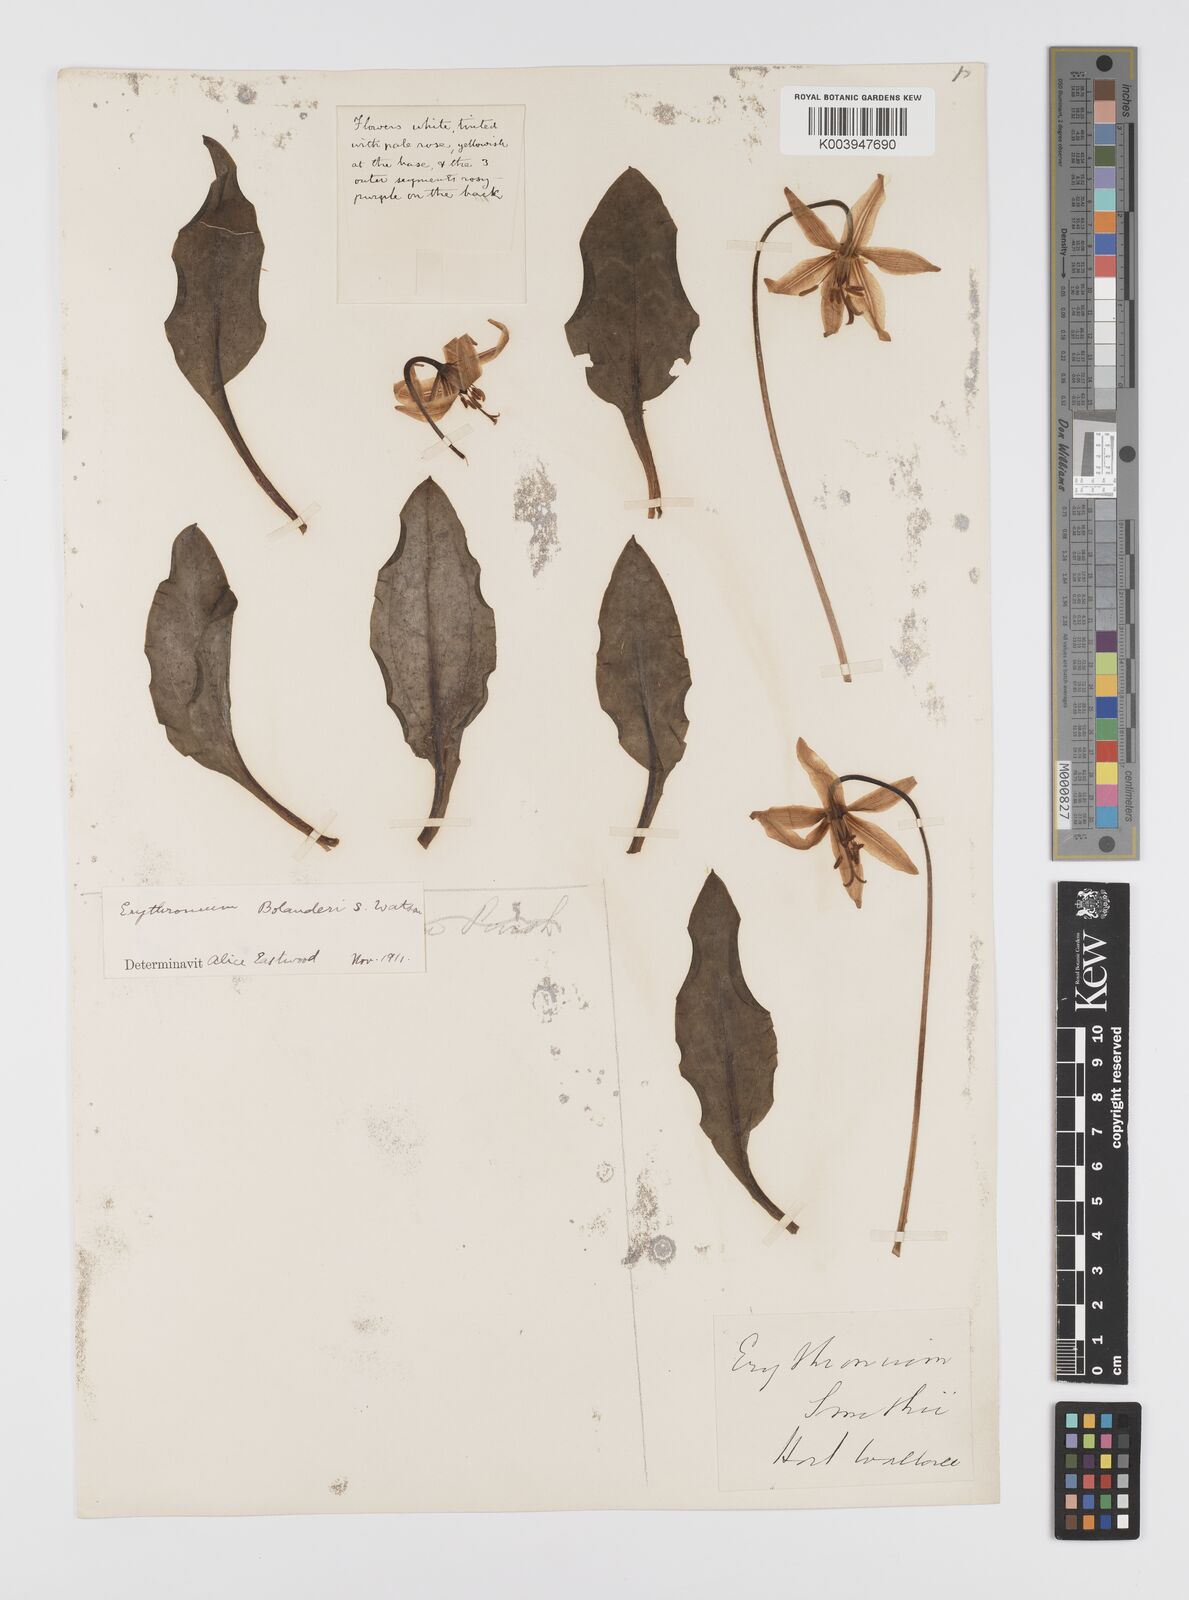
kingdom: Plantae
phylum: Tracheophyta
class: Liliopsida
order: Liliales
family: Liliaceae
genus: Erythronium
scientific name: Erythronium purpurascens
